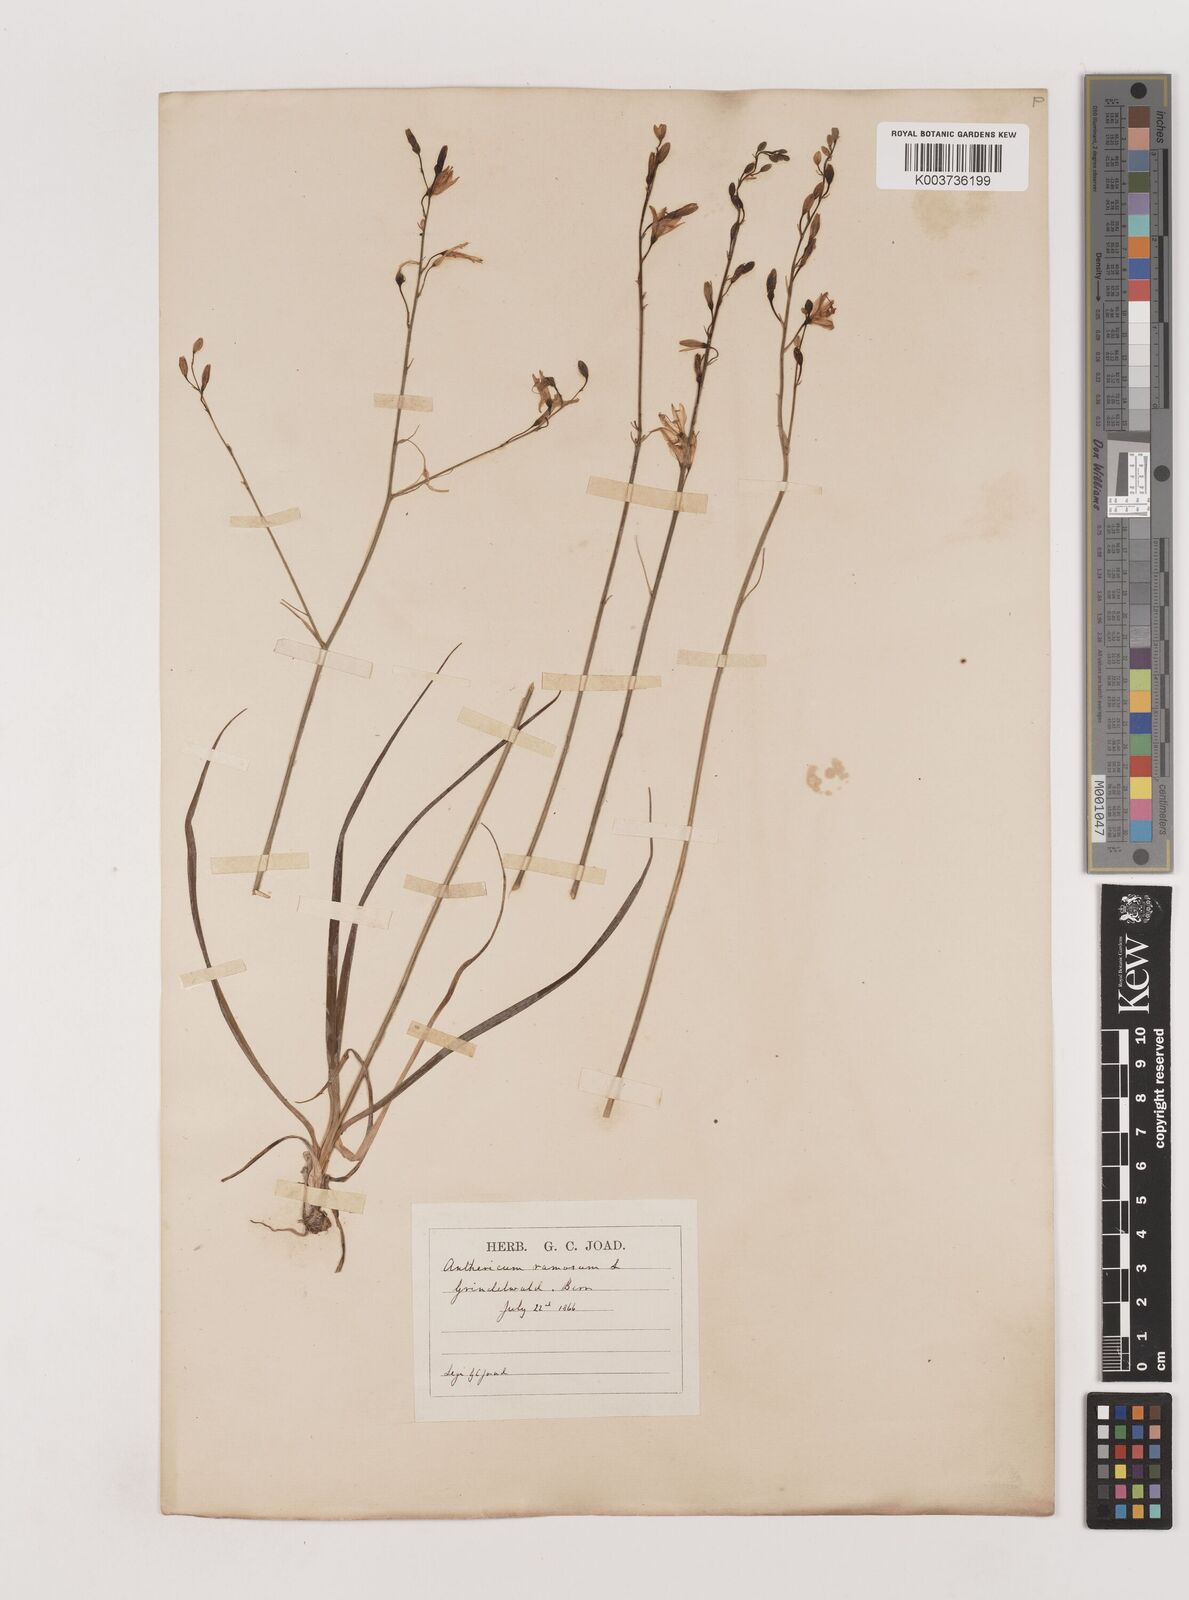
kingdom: Plantae
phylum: Tracheophyta
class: Liliopsida
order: Asparagales
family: Asparagaceae
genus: Anthericum
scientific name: Anthericum ramosum
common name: Branched st. bernard's-lily
